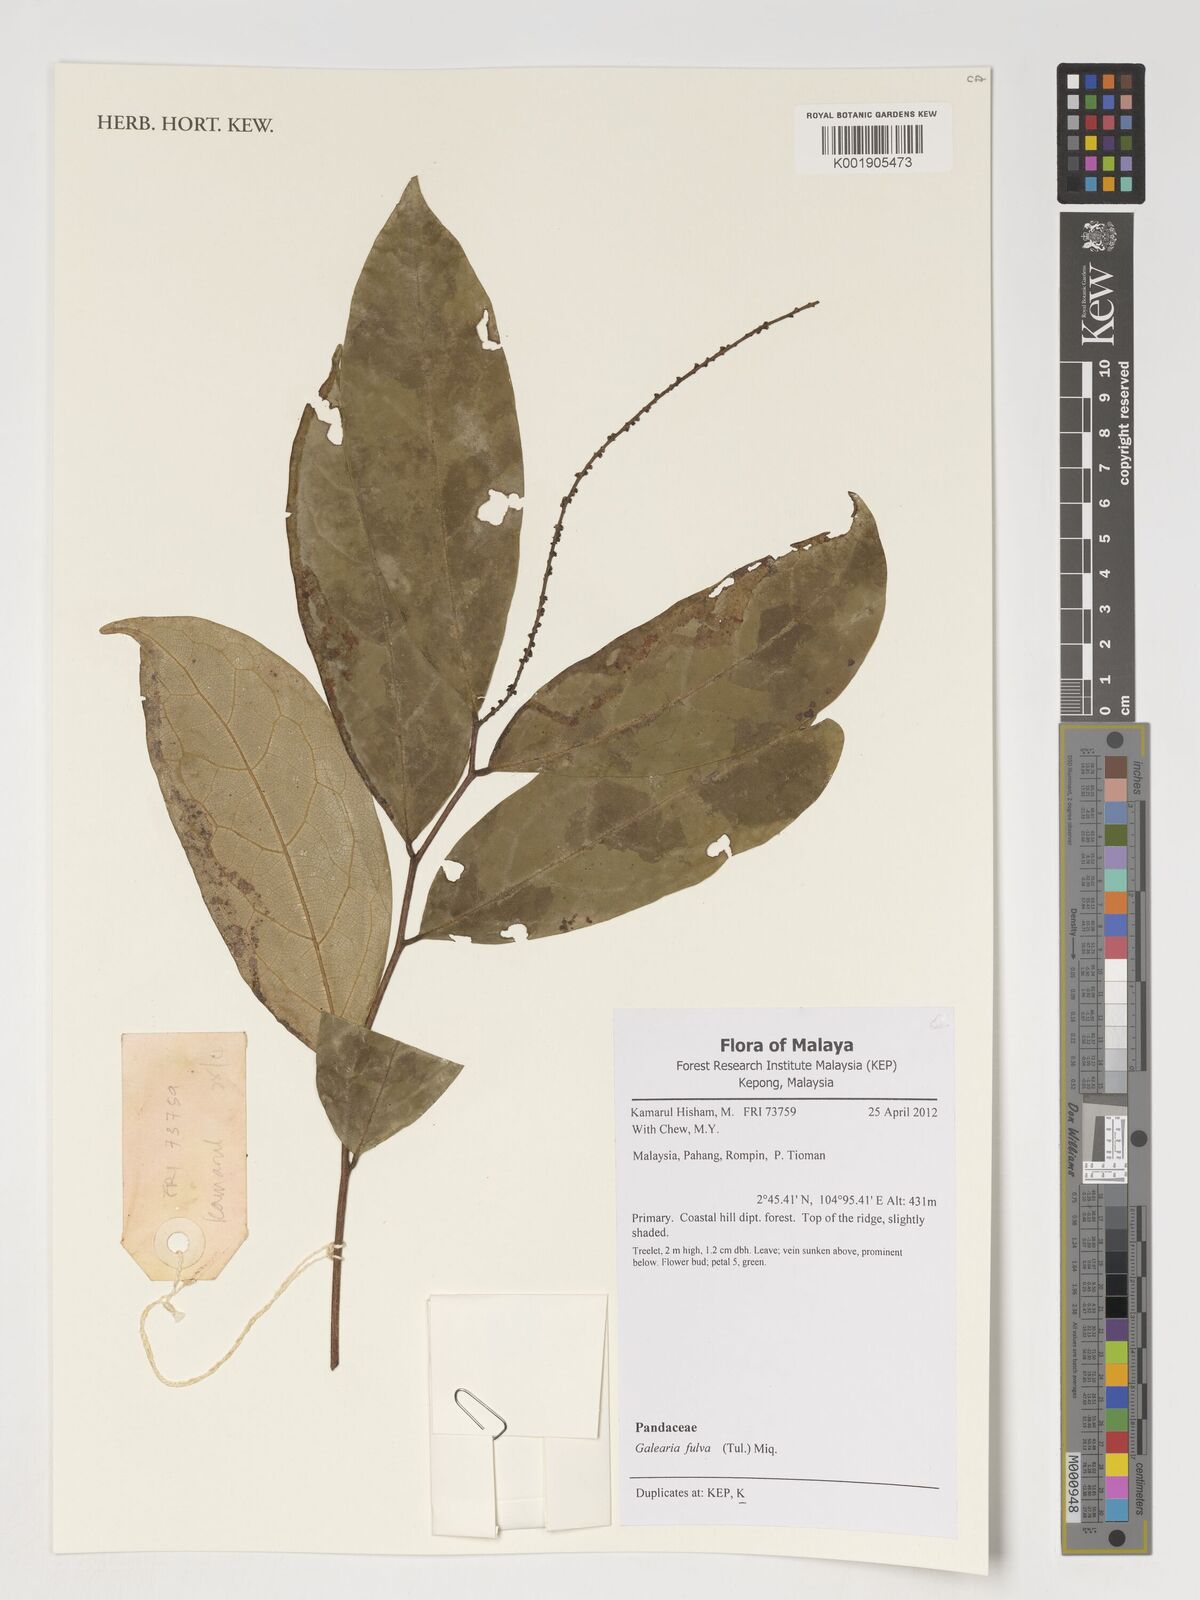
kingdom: Plantae
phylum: Tracheophyta
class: Magnoliopsida
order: Malpighiales
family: Pandaceae
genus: Galearia
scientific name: Galearia fulva
